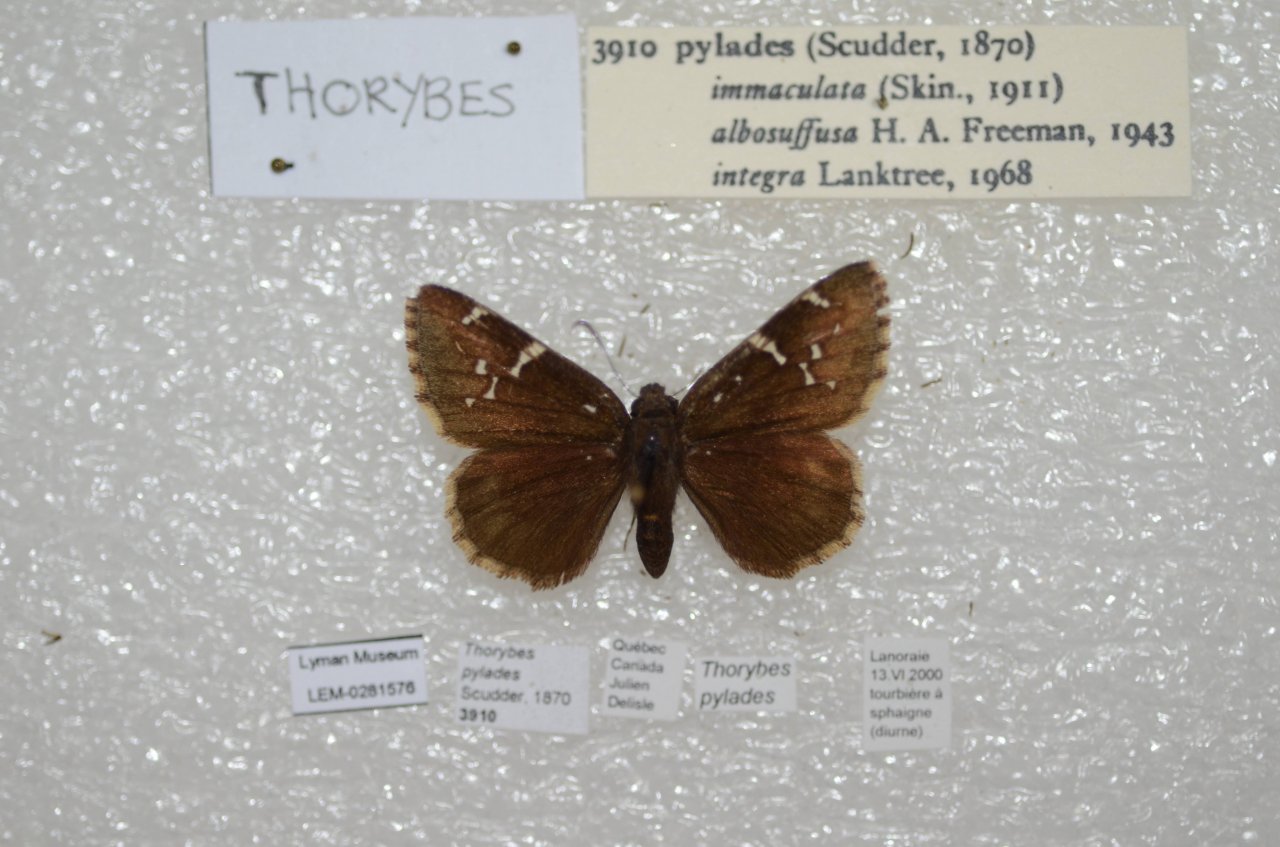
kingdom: Animalia
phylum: Arthropoda
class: Insecta
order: Lepidoptera
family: Hesperiidae
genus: Autochton
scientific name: Autochton
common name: Northern Cloudywing
